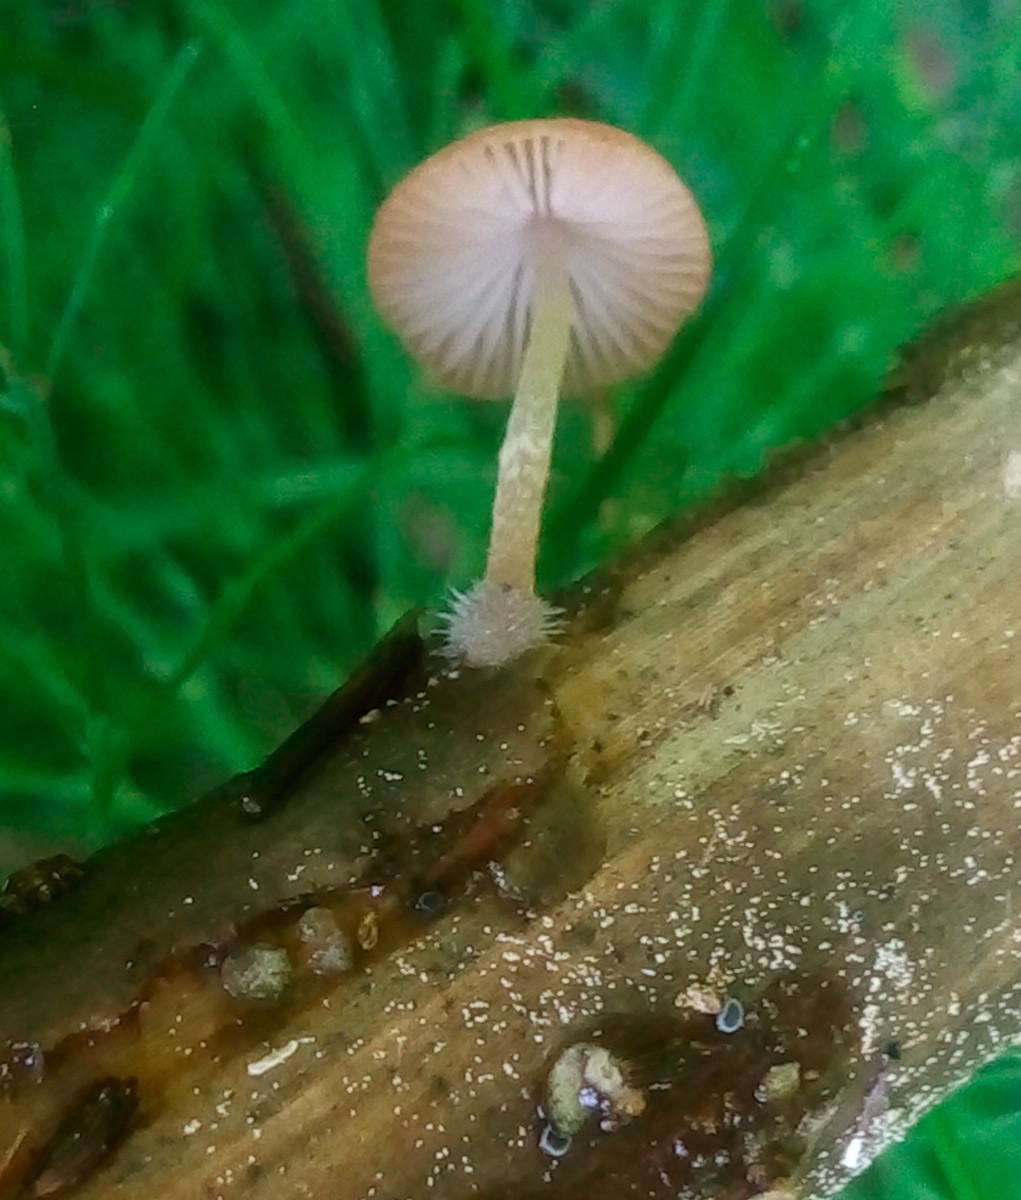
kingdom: Fungi
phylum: Basidiomycota
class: Agaricomycetes
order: Agaricales
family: Psathyrellaceae
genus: Candolleomyces
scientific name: Candolleomyces typhae
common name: dunhammer-mørkhat
